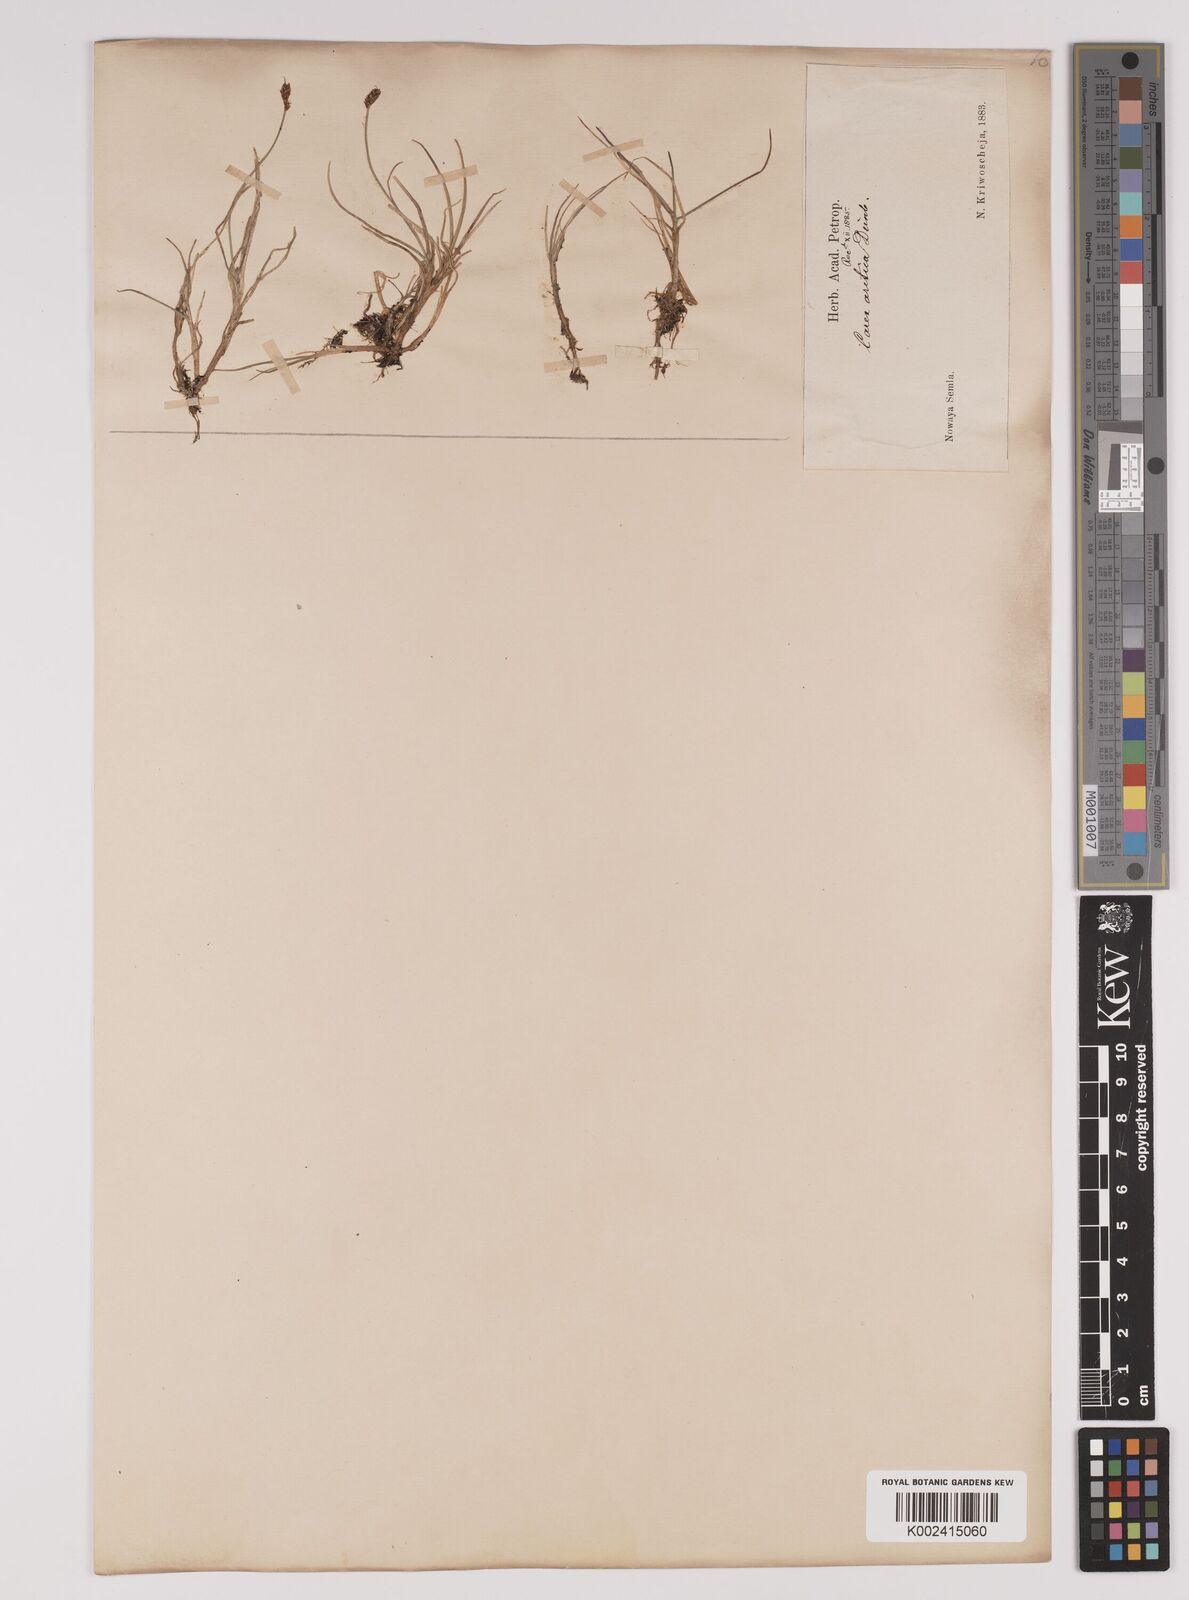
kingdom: Plantae
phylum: Tracheophyta
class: Liliopsida
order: Poales
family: Cyperaceae
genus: Carex
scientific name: Carex dioica
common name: Dioecious sedge
